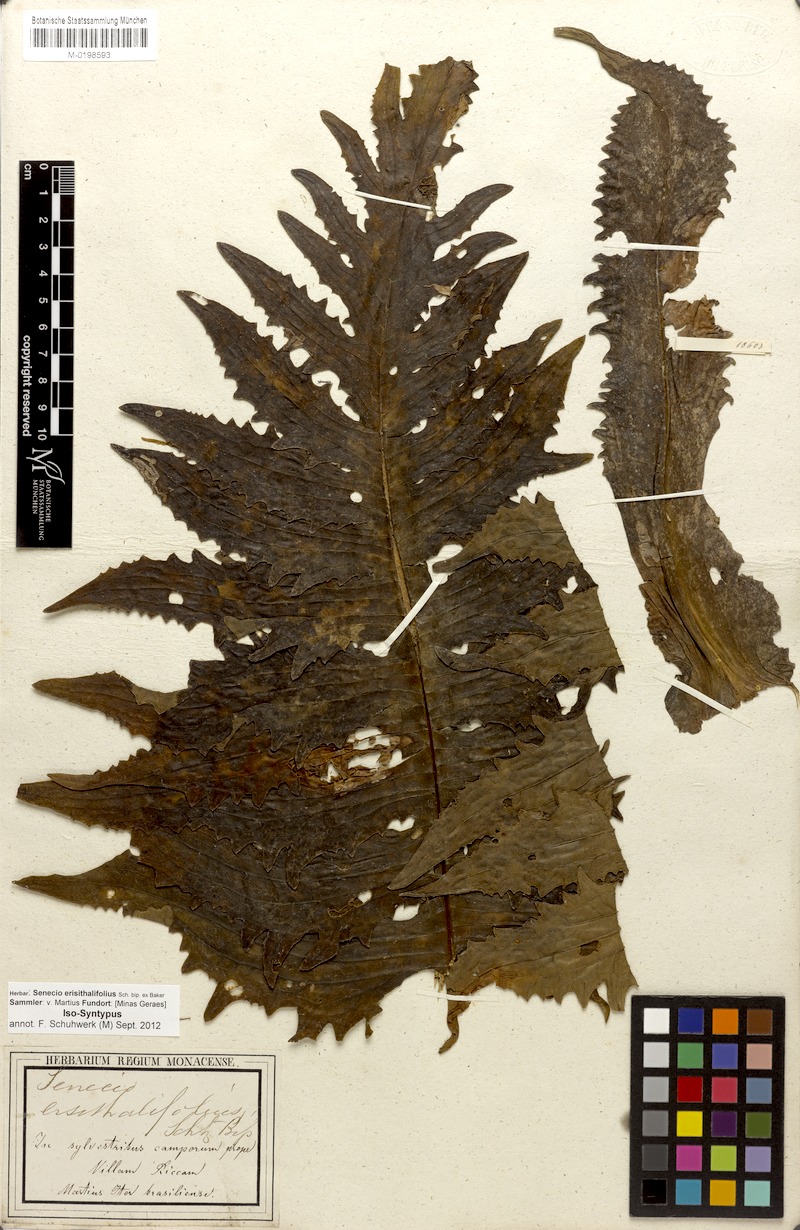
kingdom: Plantae
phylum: Tracheophyta
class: Magnoliopsida
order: Asterales
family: Asteraceae
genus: Senecio
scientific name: Senecio erisithalifolius
